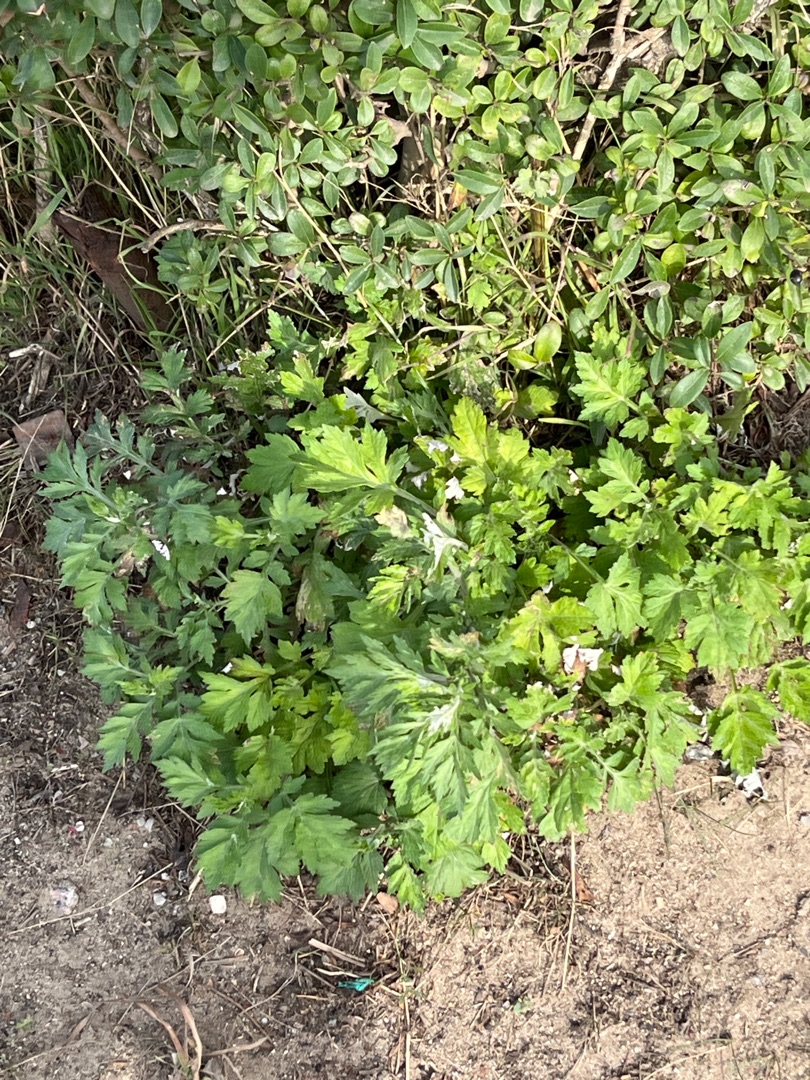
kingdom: Plantae
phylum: Tracheophyta
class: Magnoliopsida
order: Asterales
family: Asteraceae
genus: Artemisia
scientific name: Artemisia vulgaris
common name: Grå-bynke
